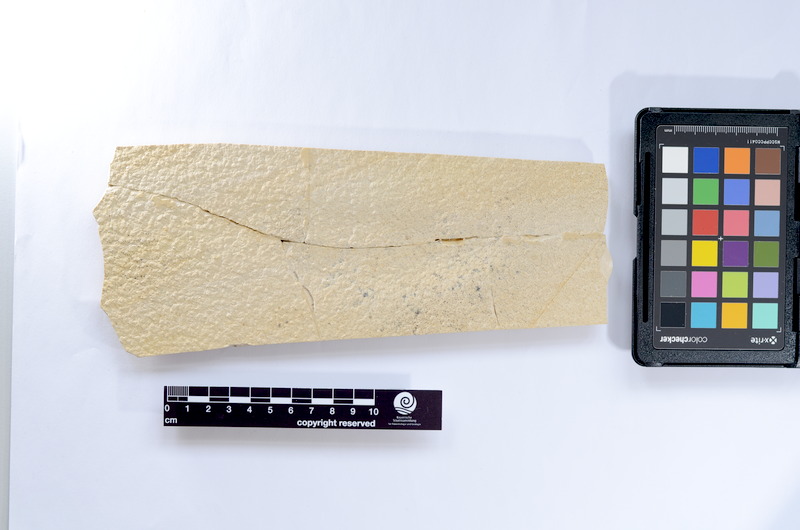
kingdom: Animalia
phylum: Chordata
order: Elopiformes
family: Anaethalionidae
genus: Anaethalion
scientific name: Anaethalion knorri
